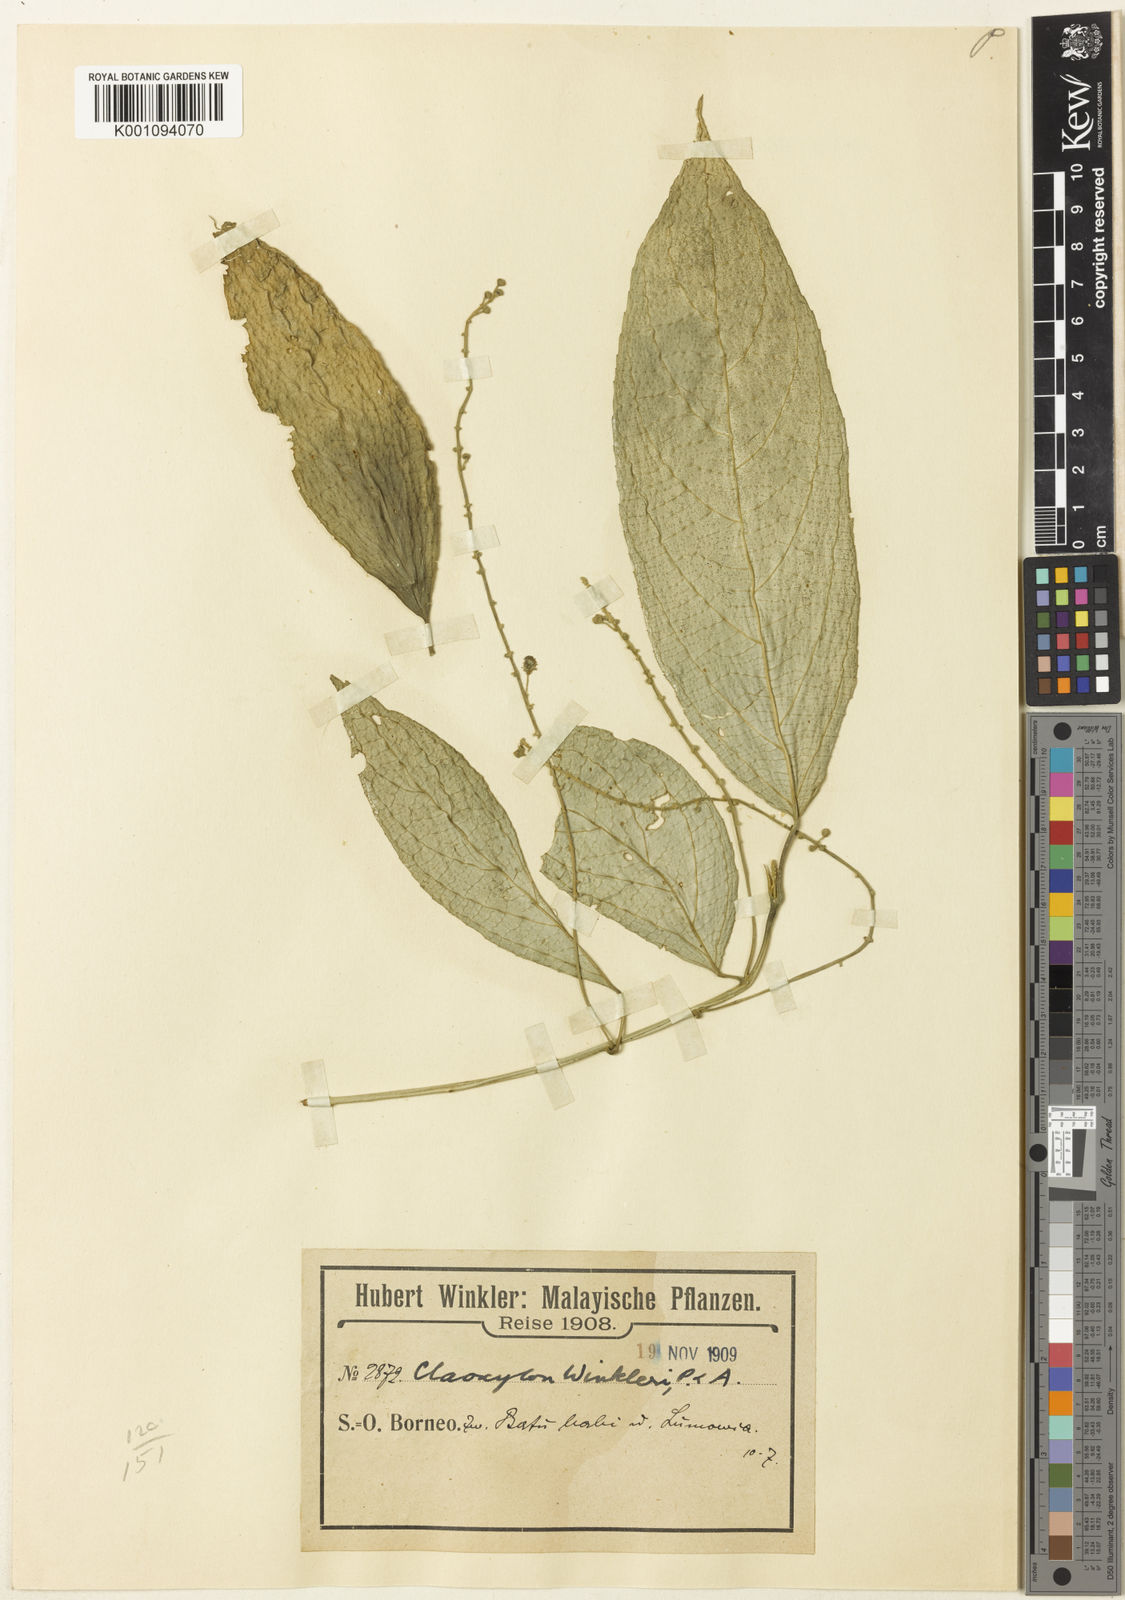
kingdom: Plantae
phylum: Tracheophyta
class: Magnoliopsida
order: Malpighiales
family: Euphorbiaceae
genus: Claoxylon
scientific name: Claoxylon winkleri
